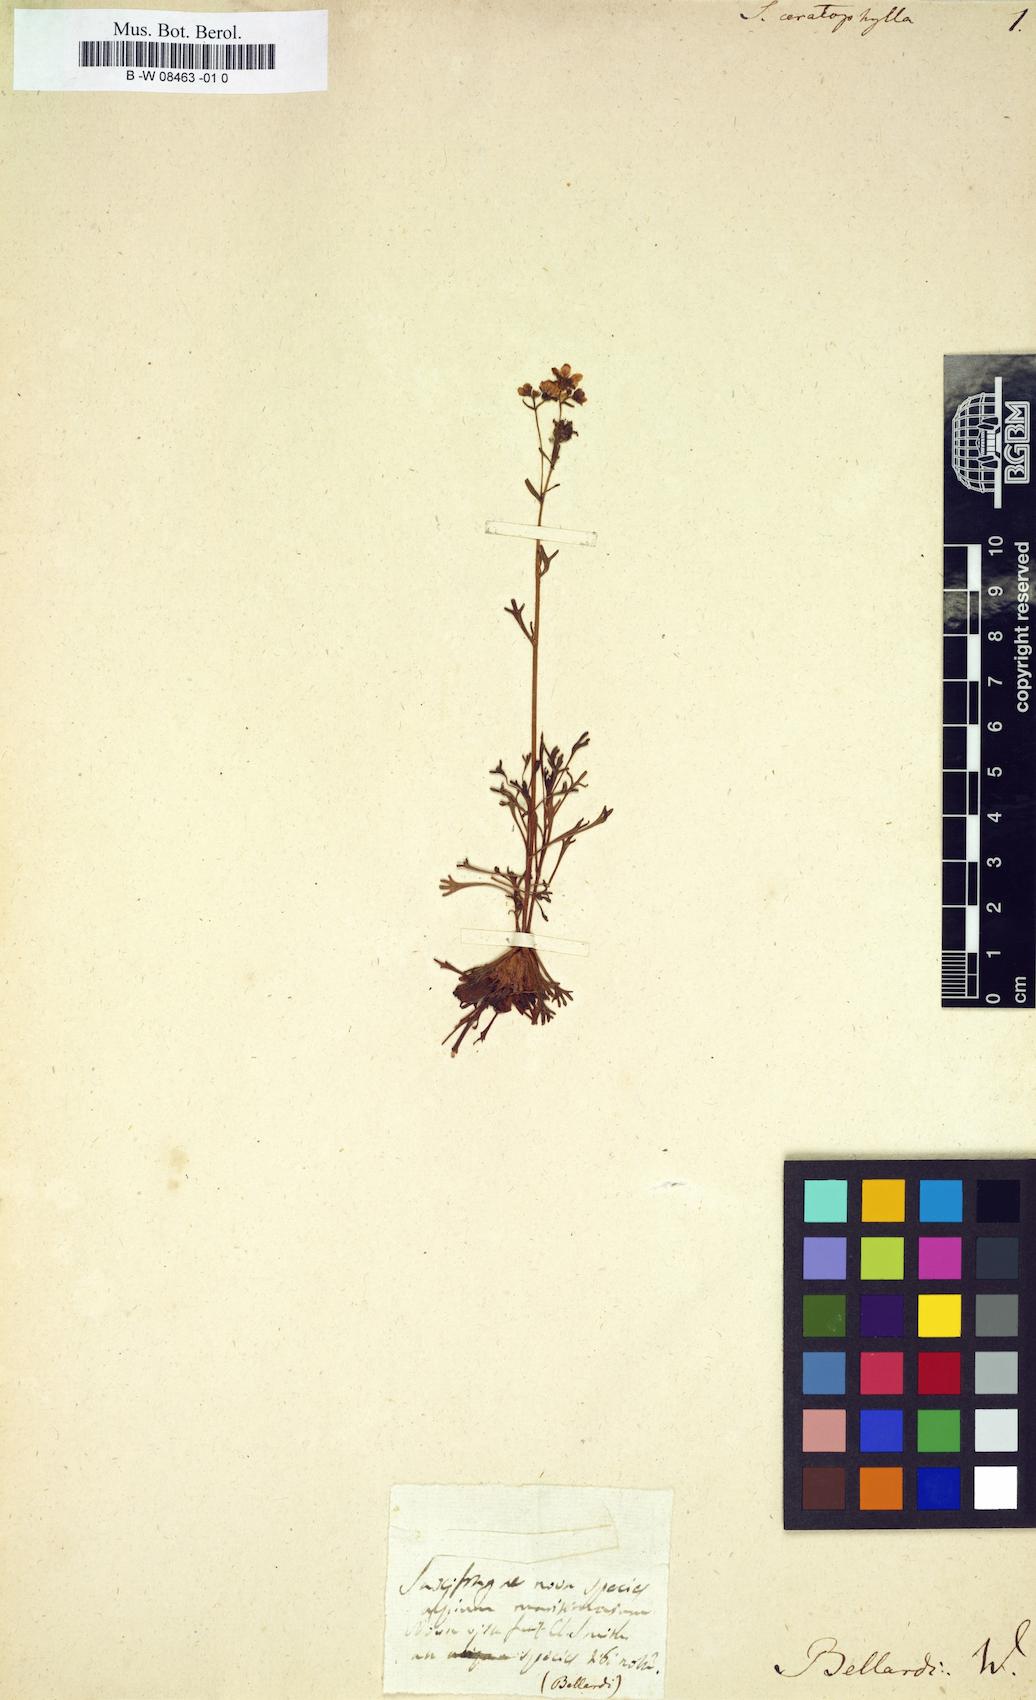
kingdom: Plantae
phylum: Tracheophyta
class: Magnoliopsida
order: Saxifragales
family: Saxifragaceae
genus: Saxifraga
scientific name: Saxifraga trifurcata
